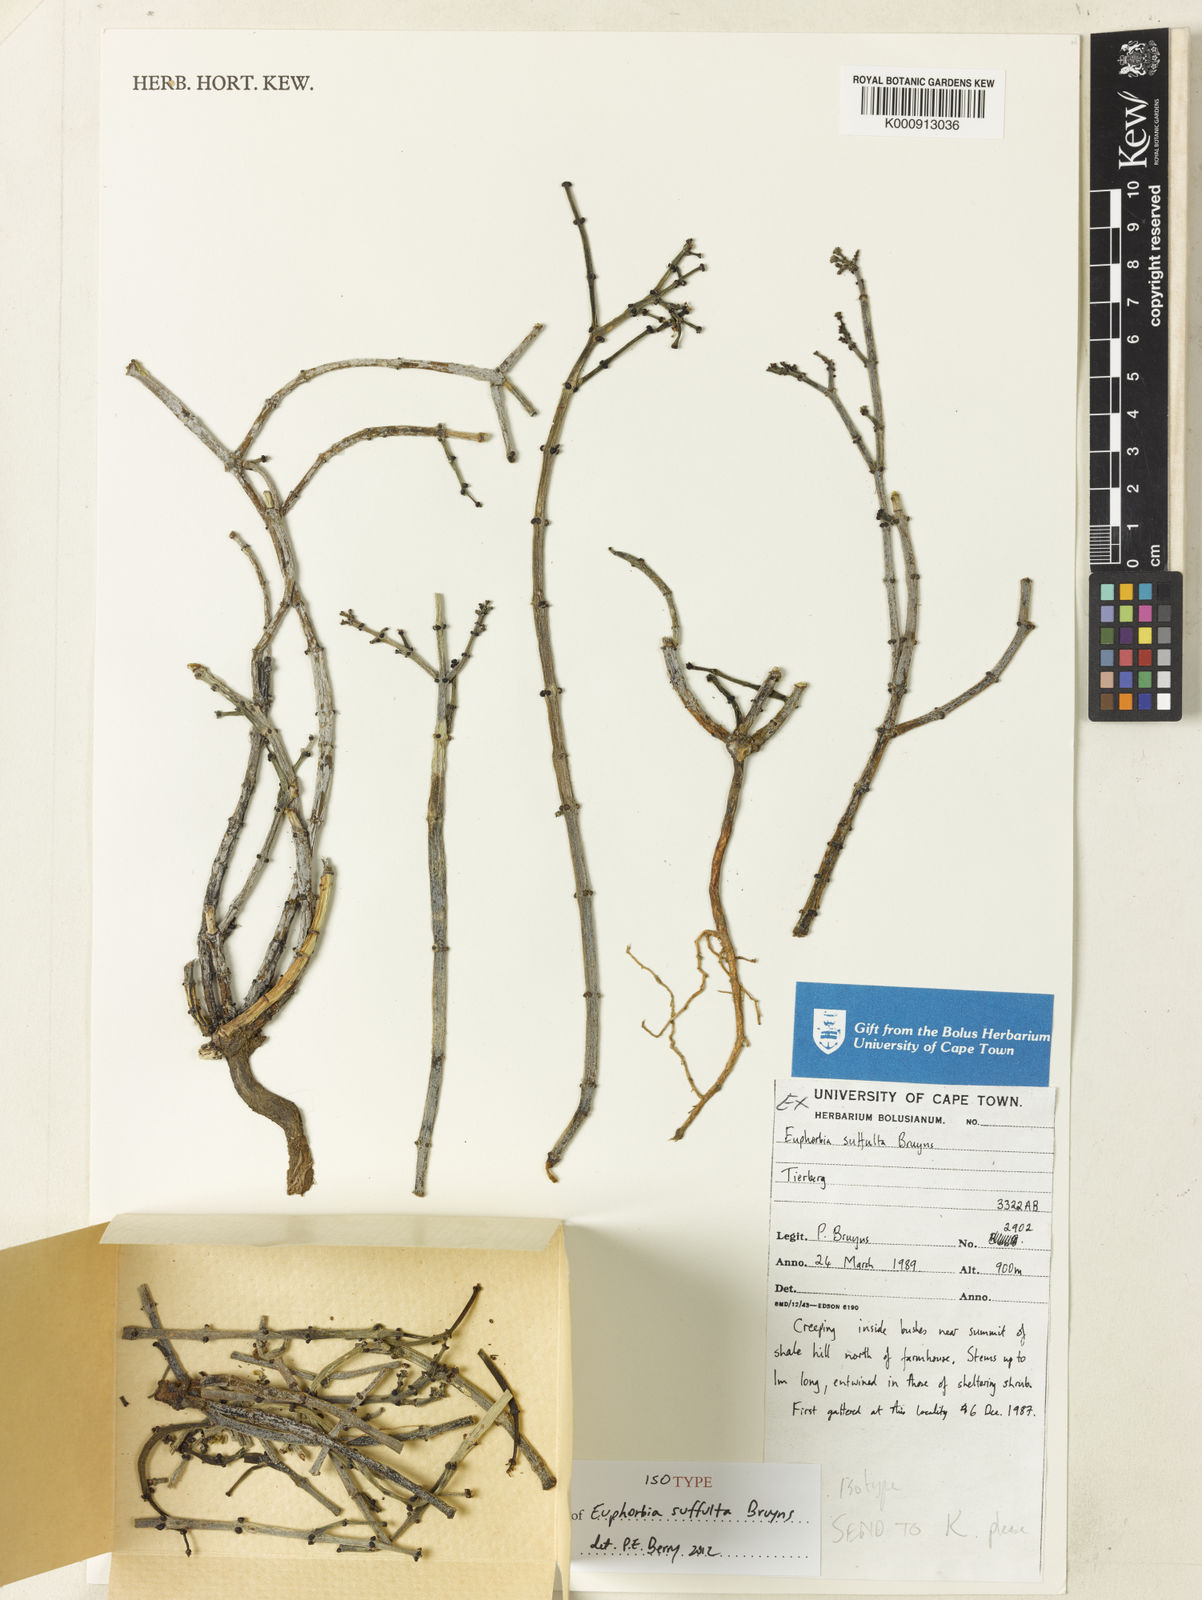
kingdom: Plantae
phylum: Tracheophyta
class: Magnoliopsida
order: Malpighiales
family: Euphorbiaceae
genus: Euphorbia
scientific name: Euphorbia suffulta
